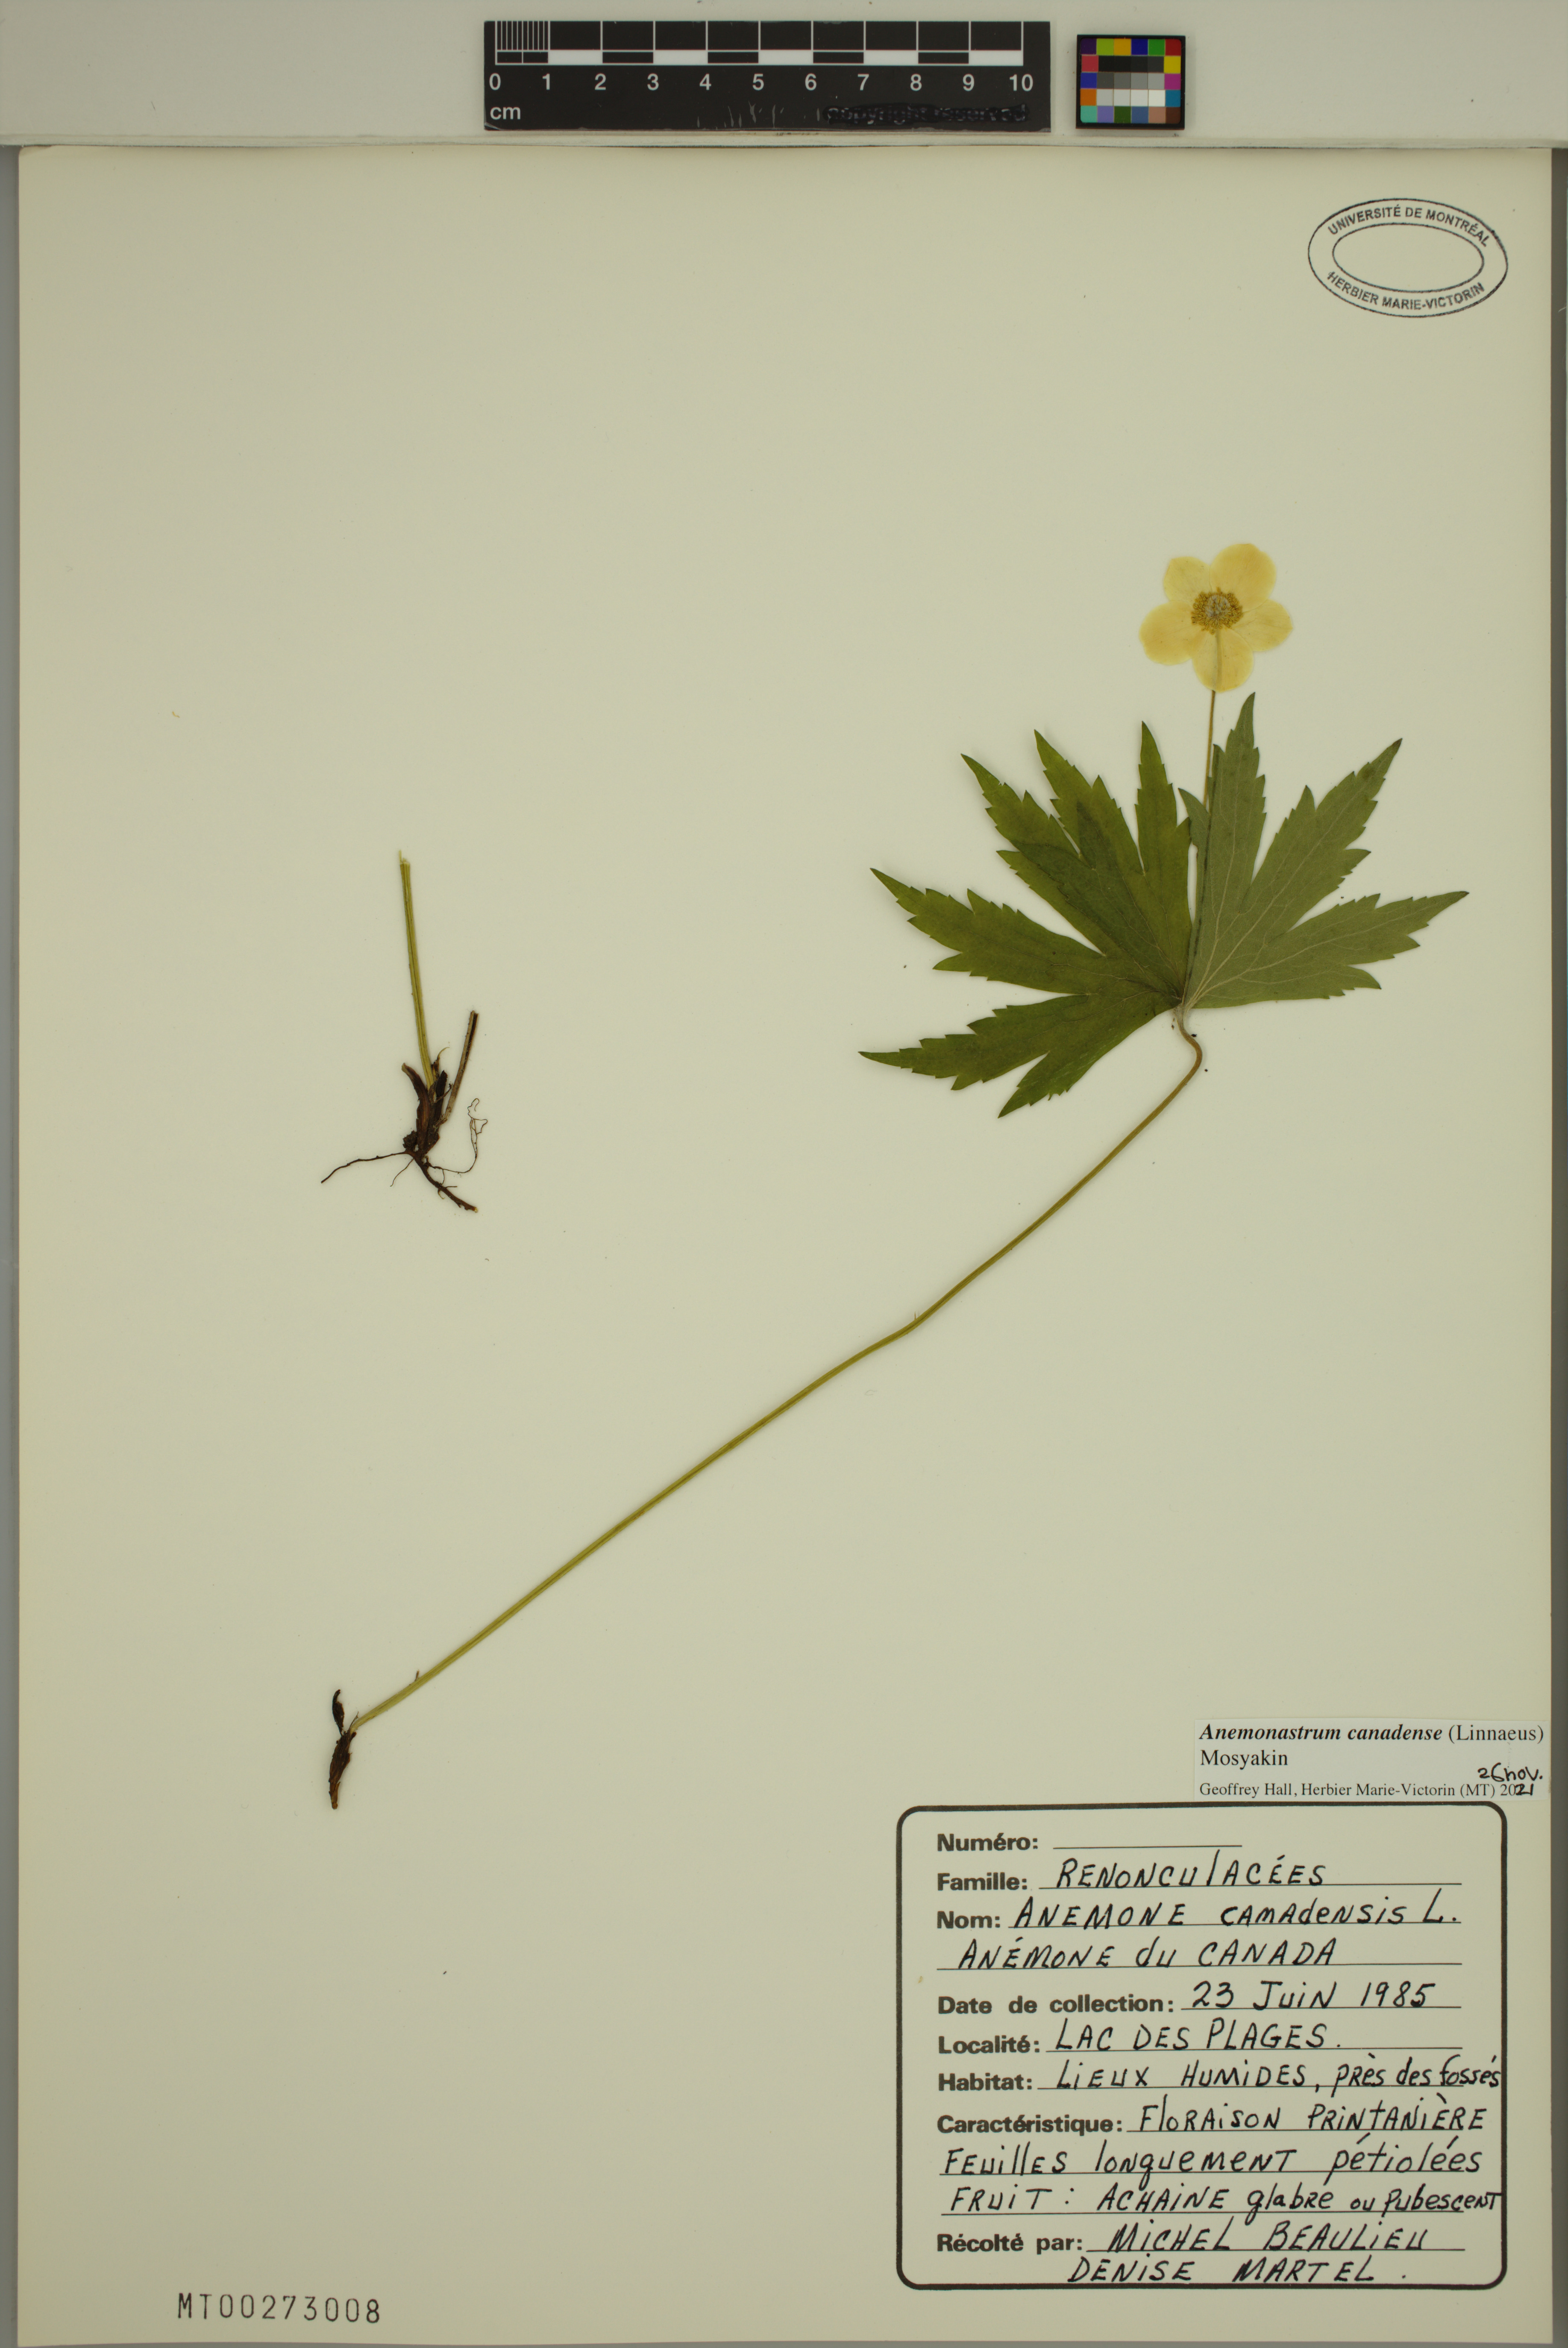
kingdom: Plantae
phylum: Tracheophyta
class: Magnoliopsida
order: Ranunculales
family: Ranunculaceae
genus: Anemonastrum
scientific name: Anemonastrum canadense
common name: Canada anemone
